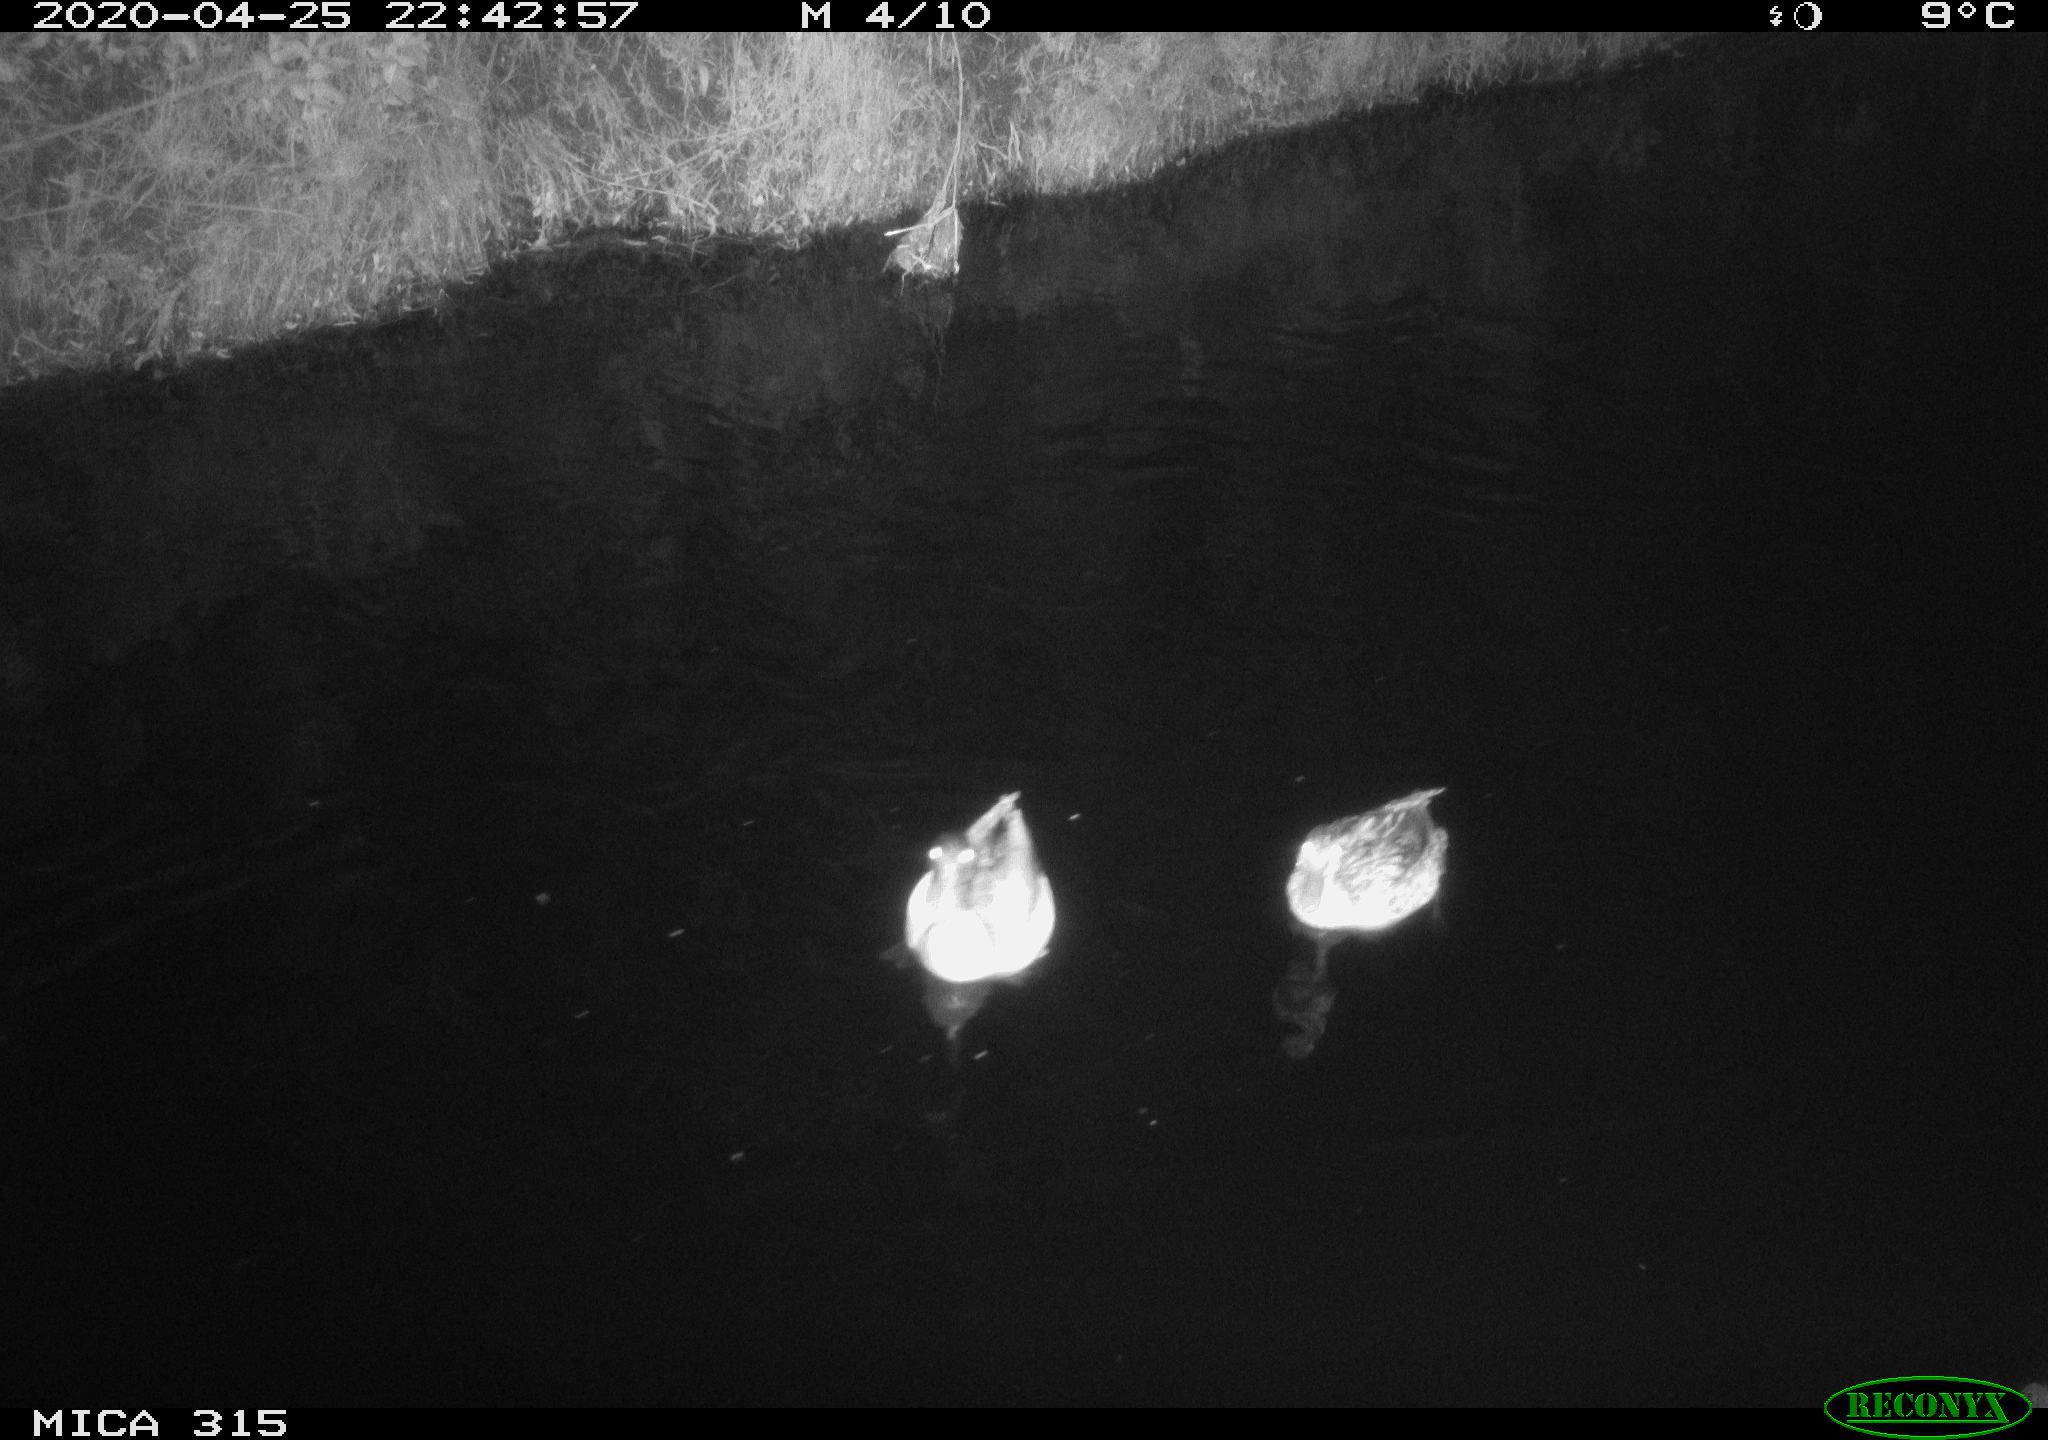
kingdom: Animalia
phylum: Chordata
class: Aves
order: Anseriformes
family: Anatidae
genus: Anas
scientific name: Anas platyrhynchos
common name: Mallard
